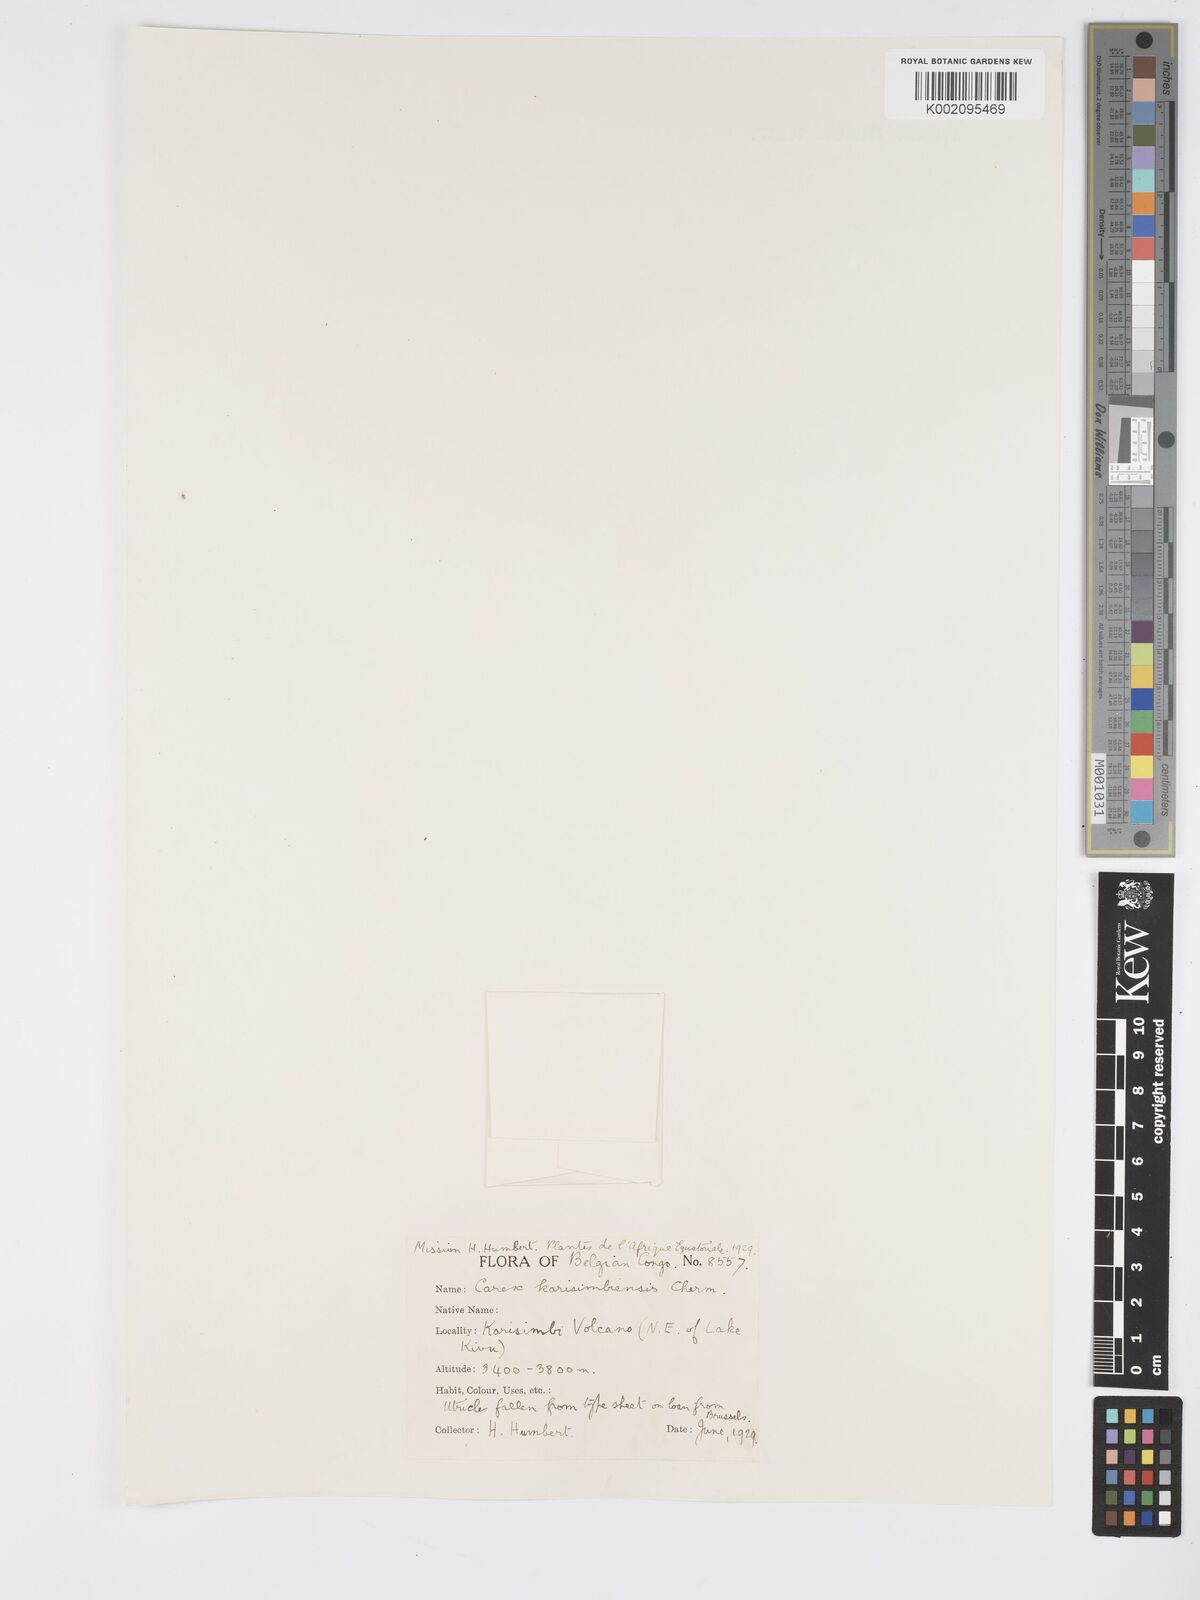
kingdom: Plantae
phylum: Tracheophyta
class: Liliopsida
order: Poales
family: Cyperaceae
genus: Carex
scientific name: Carex simensis
